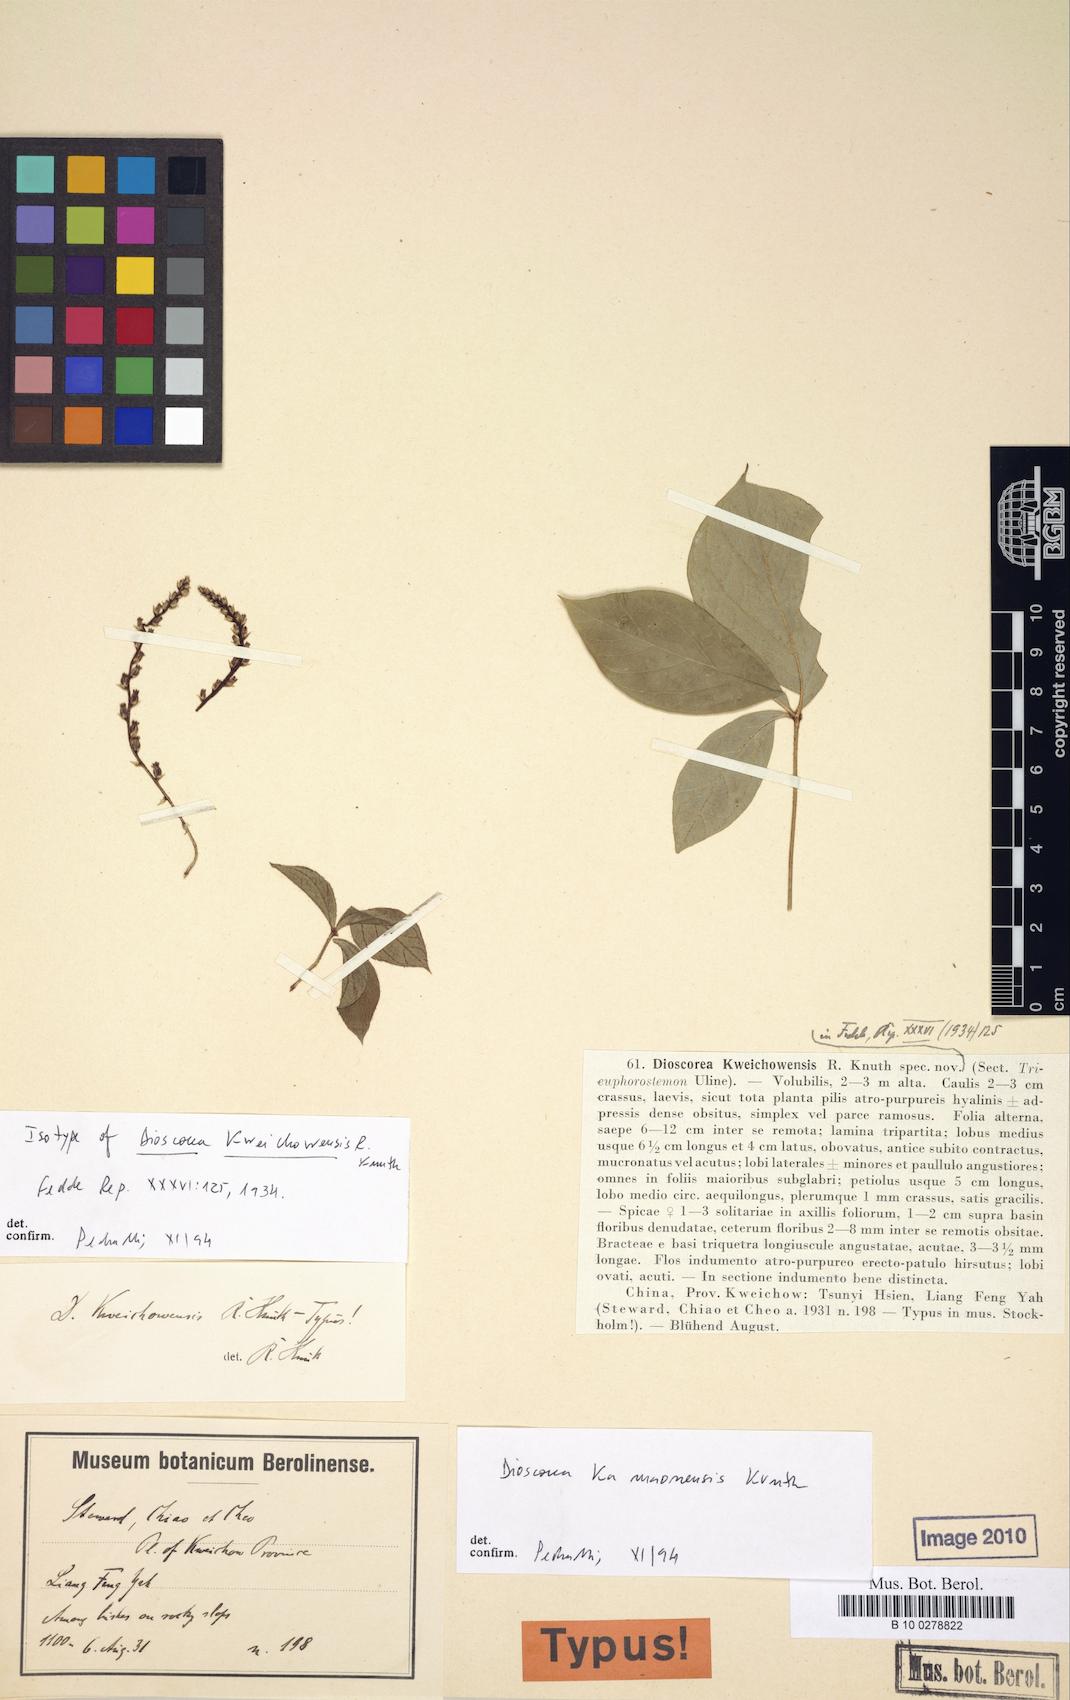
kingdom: Plantae
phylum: Tracheophyta
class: Liliopsida
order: Dioscoreales
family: Dioscoreaceae
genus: Dioscorea
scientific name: Dioscorea kweichowensis
